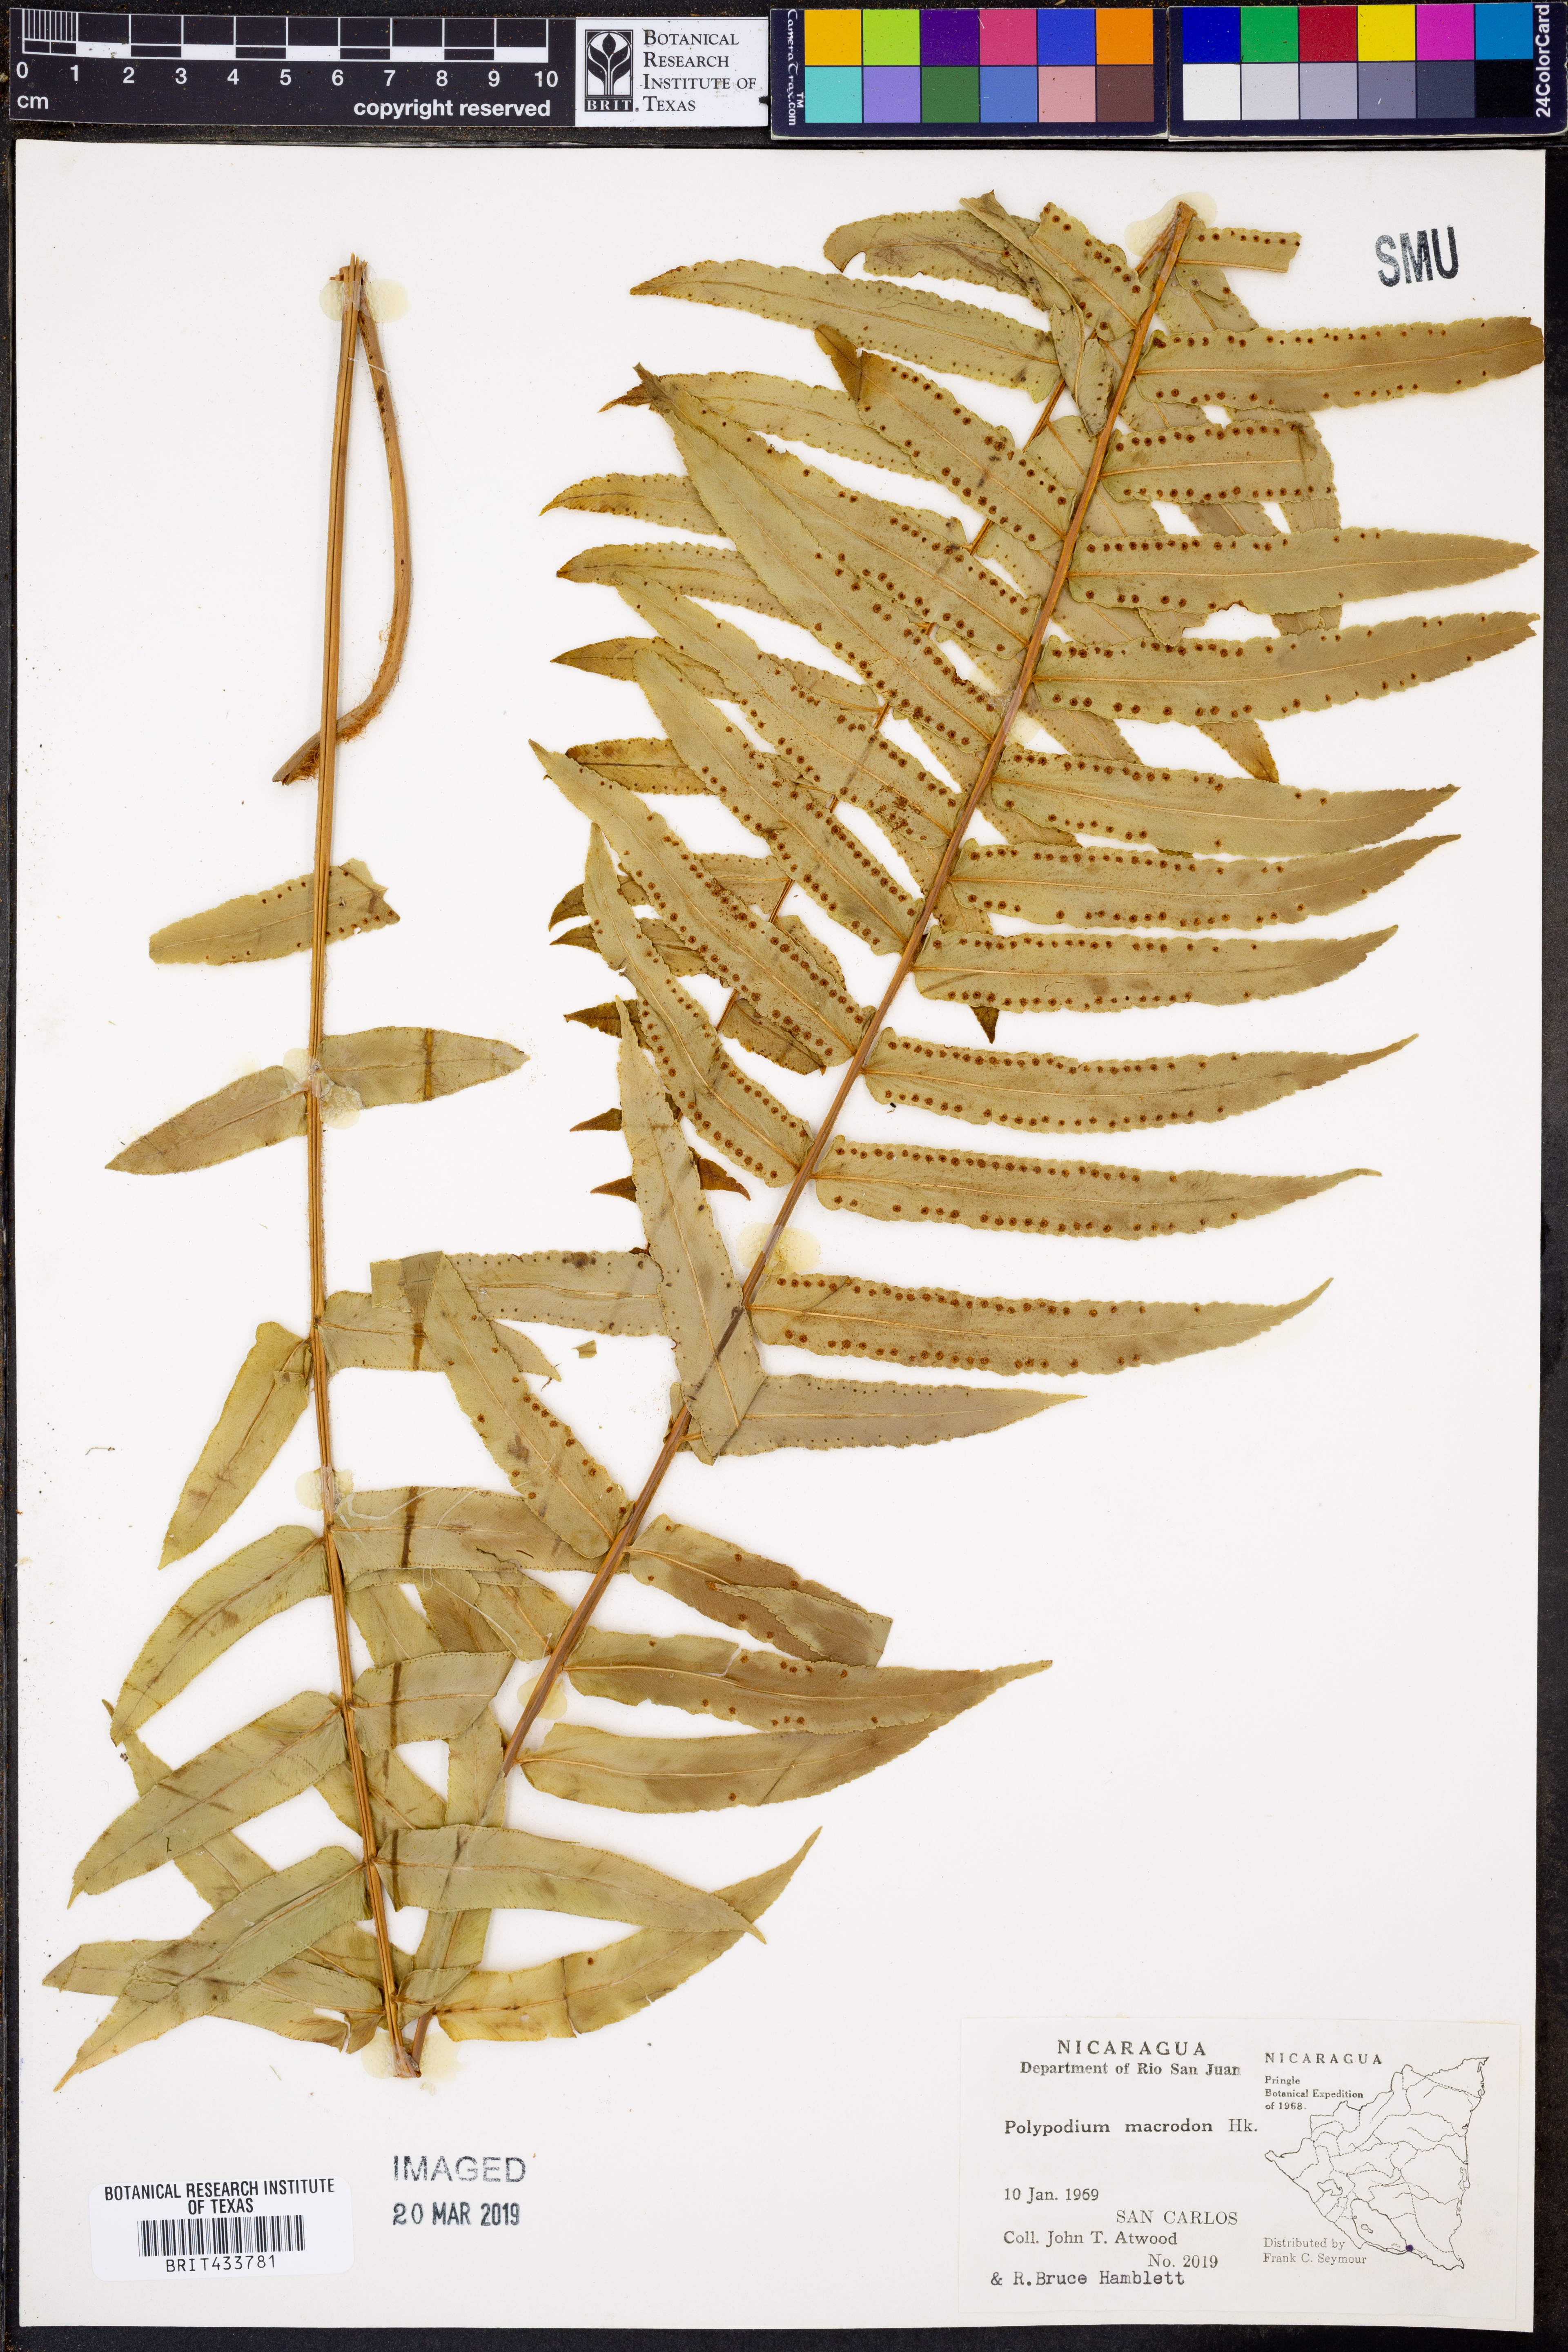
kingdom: Plantae
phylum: Tracheophyta
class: Polypodiopsida
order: Polypodiales
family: Polypodiaceae
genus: Polypodium
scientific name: Polypodium echinolepis
